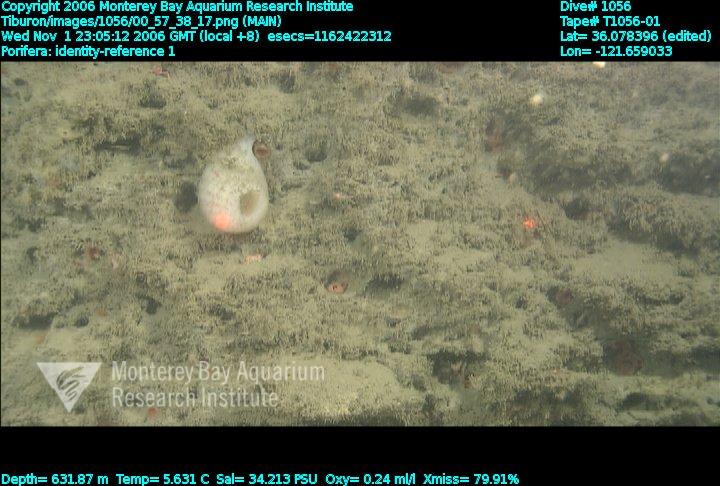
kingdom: Animalia
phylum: Porifera
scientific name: Porifera
